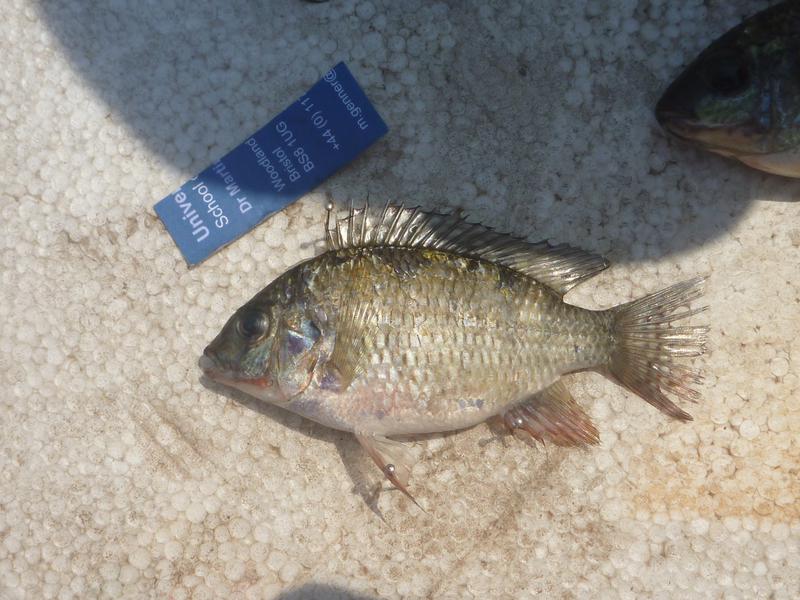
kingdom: Animalia
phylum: Chordata
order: Perciformes
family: Cichlidae
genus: Coptodon
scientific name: Coptodon rendalli
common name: Redbreast tilapia
